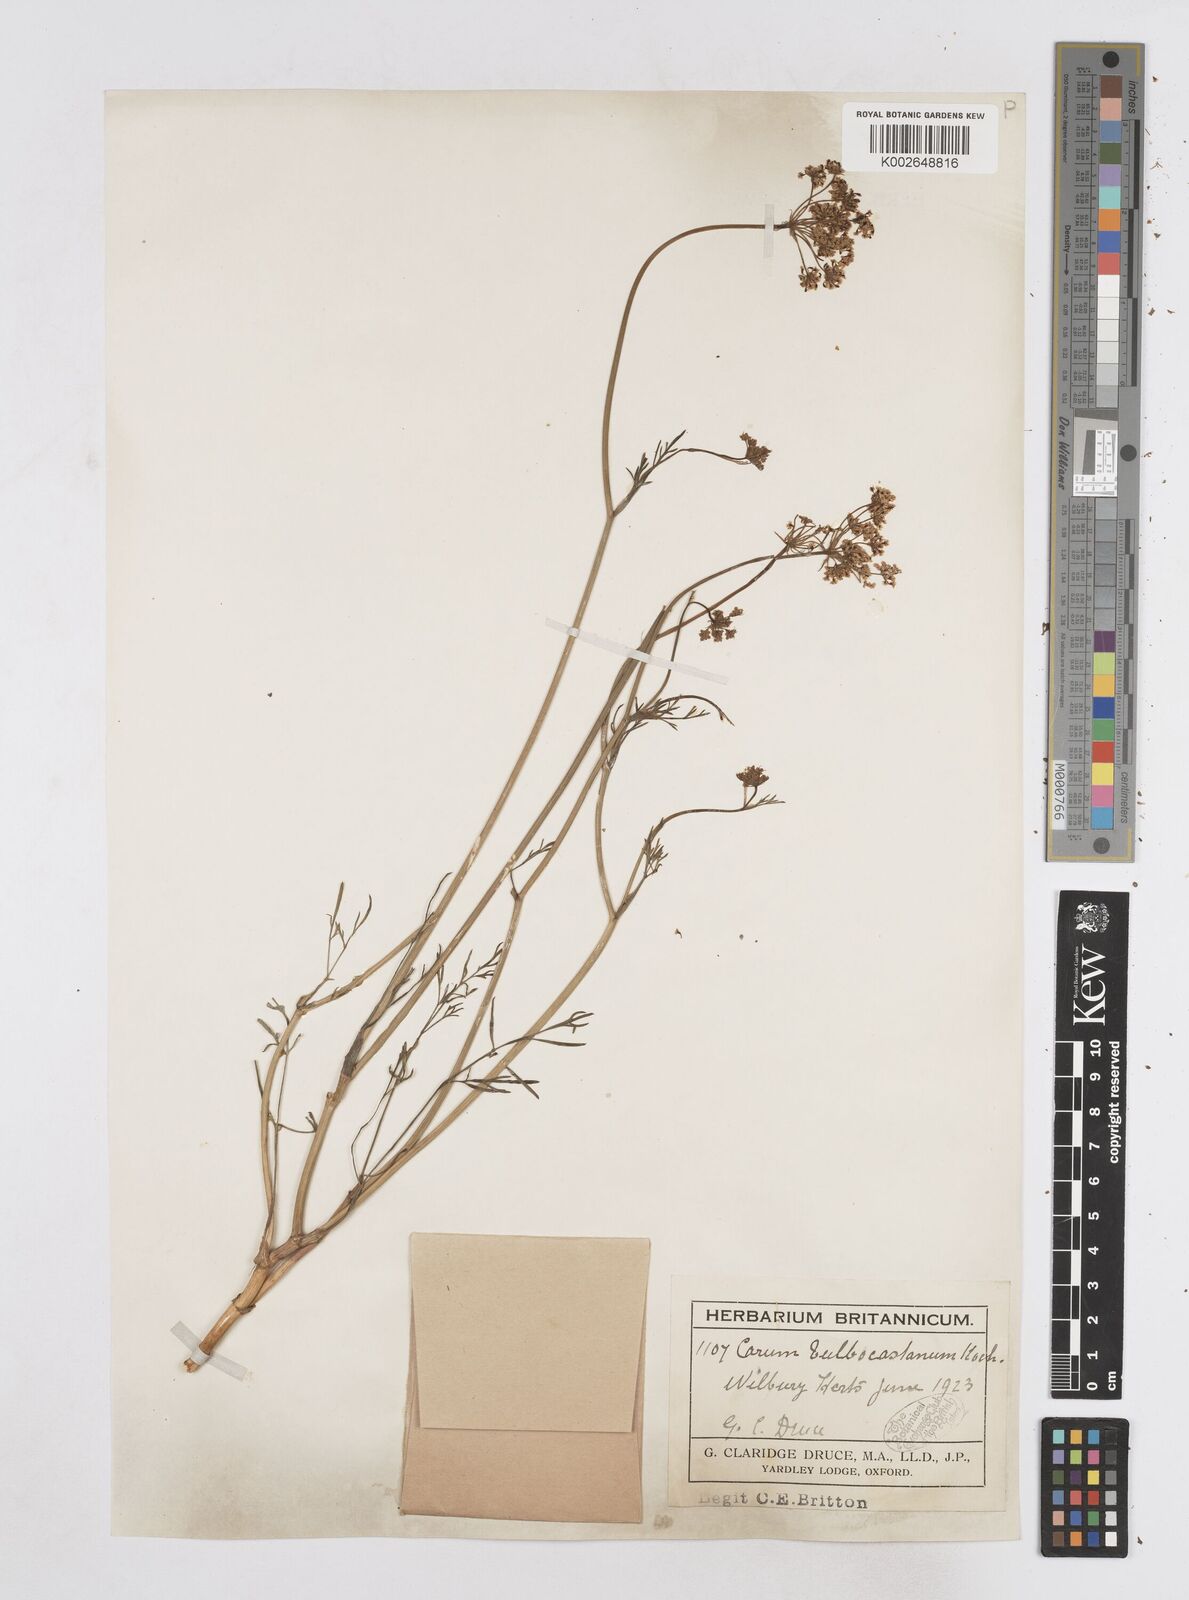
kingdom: Plantae
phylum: Tracheophyta
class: Magnoliopsida
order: Apiales
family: Apiaceae
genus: Bunium
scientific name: Bunium bulbocastanum
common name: Great pignut
